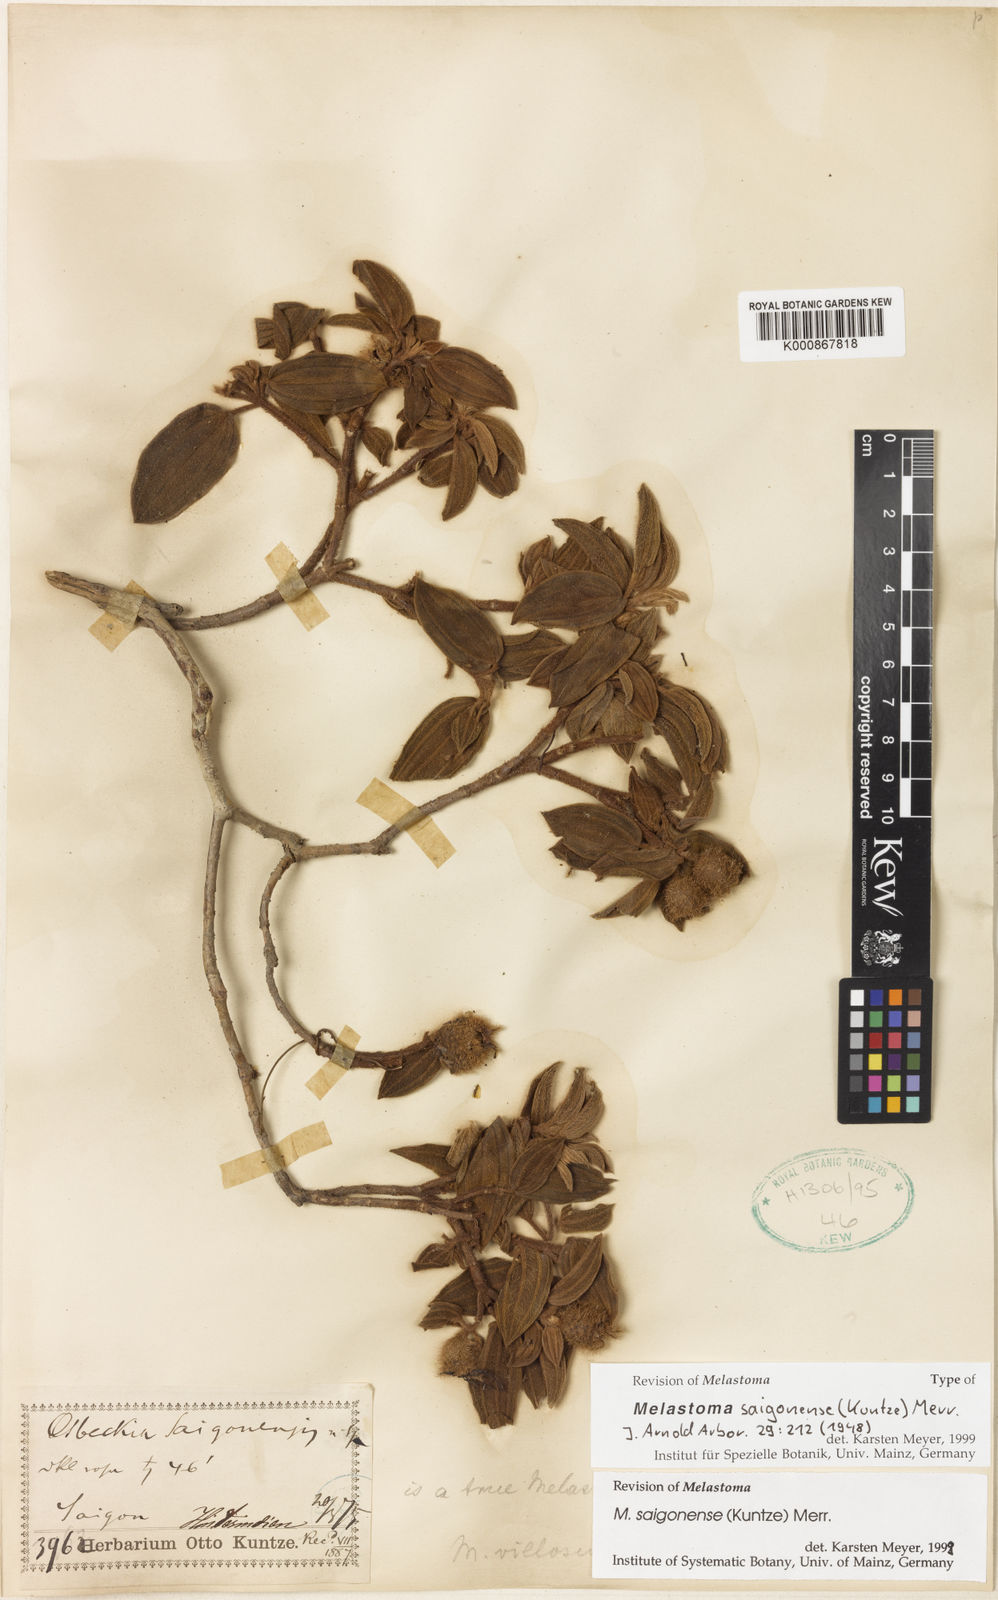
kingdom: Plantae
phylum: Tracheophyta
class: Magnoliopsida
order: Myrtales
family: Melastomataceae
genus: Melastoma
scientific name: Melastoma saigonense
